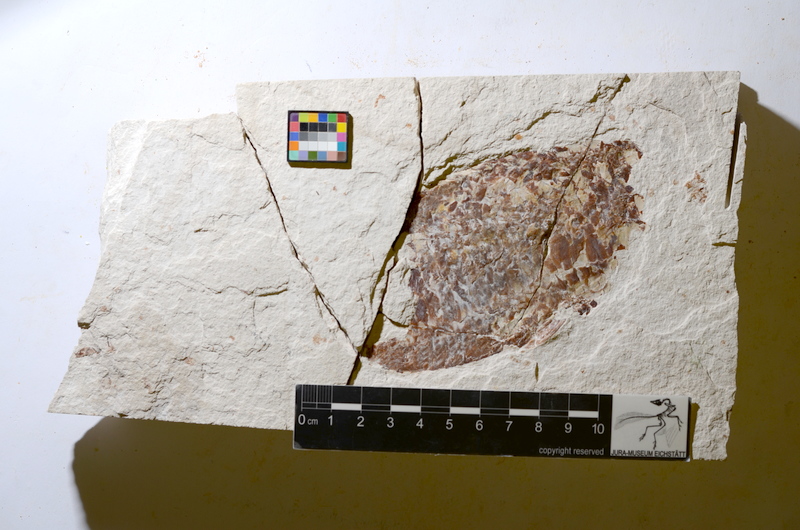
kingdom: Animalia
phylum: Chordata
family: Aspidorhynchidae
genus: Aspidorhynchus
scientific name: Aspidorhynchus
